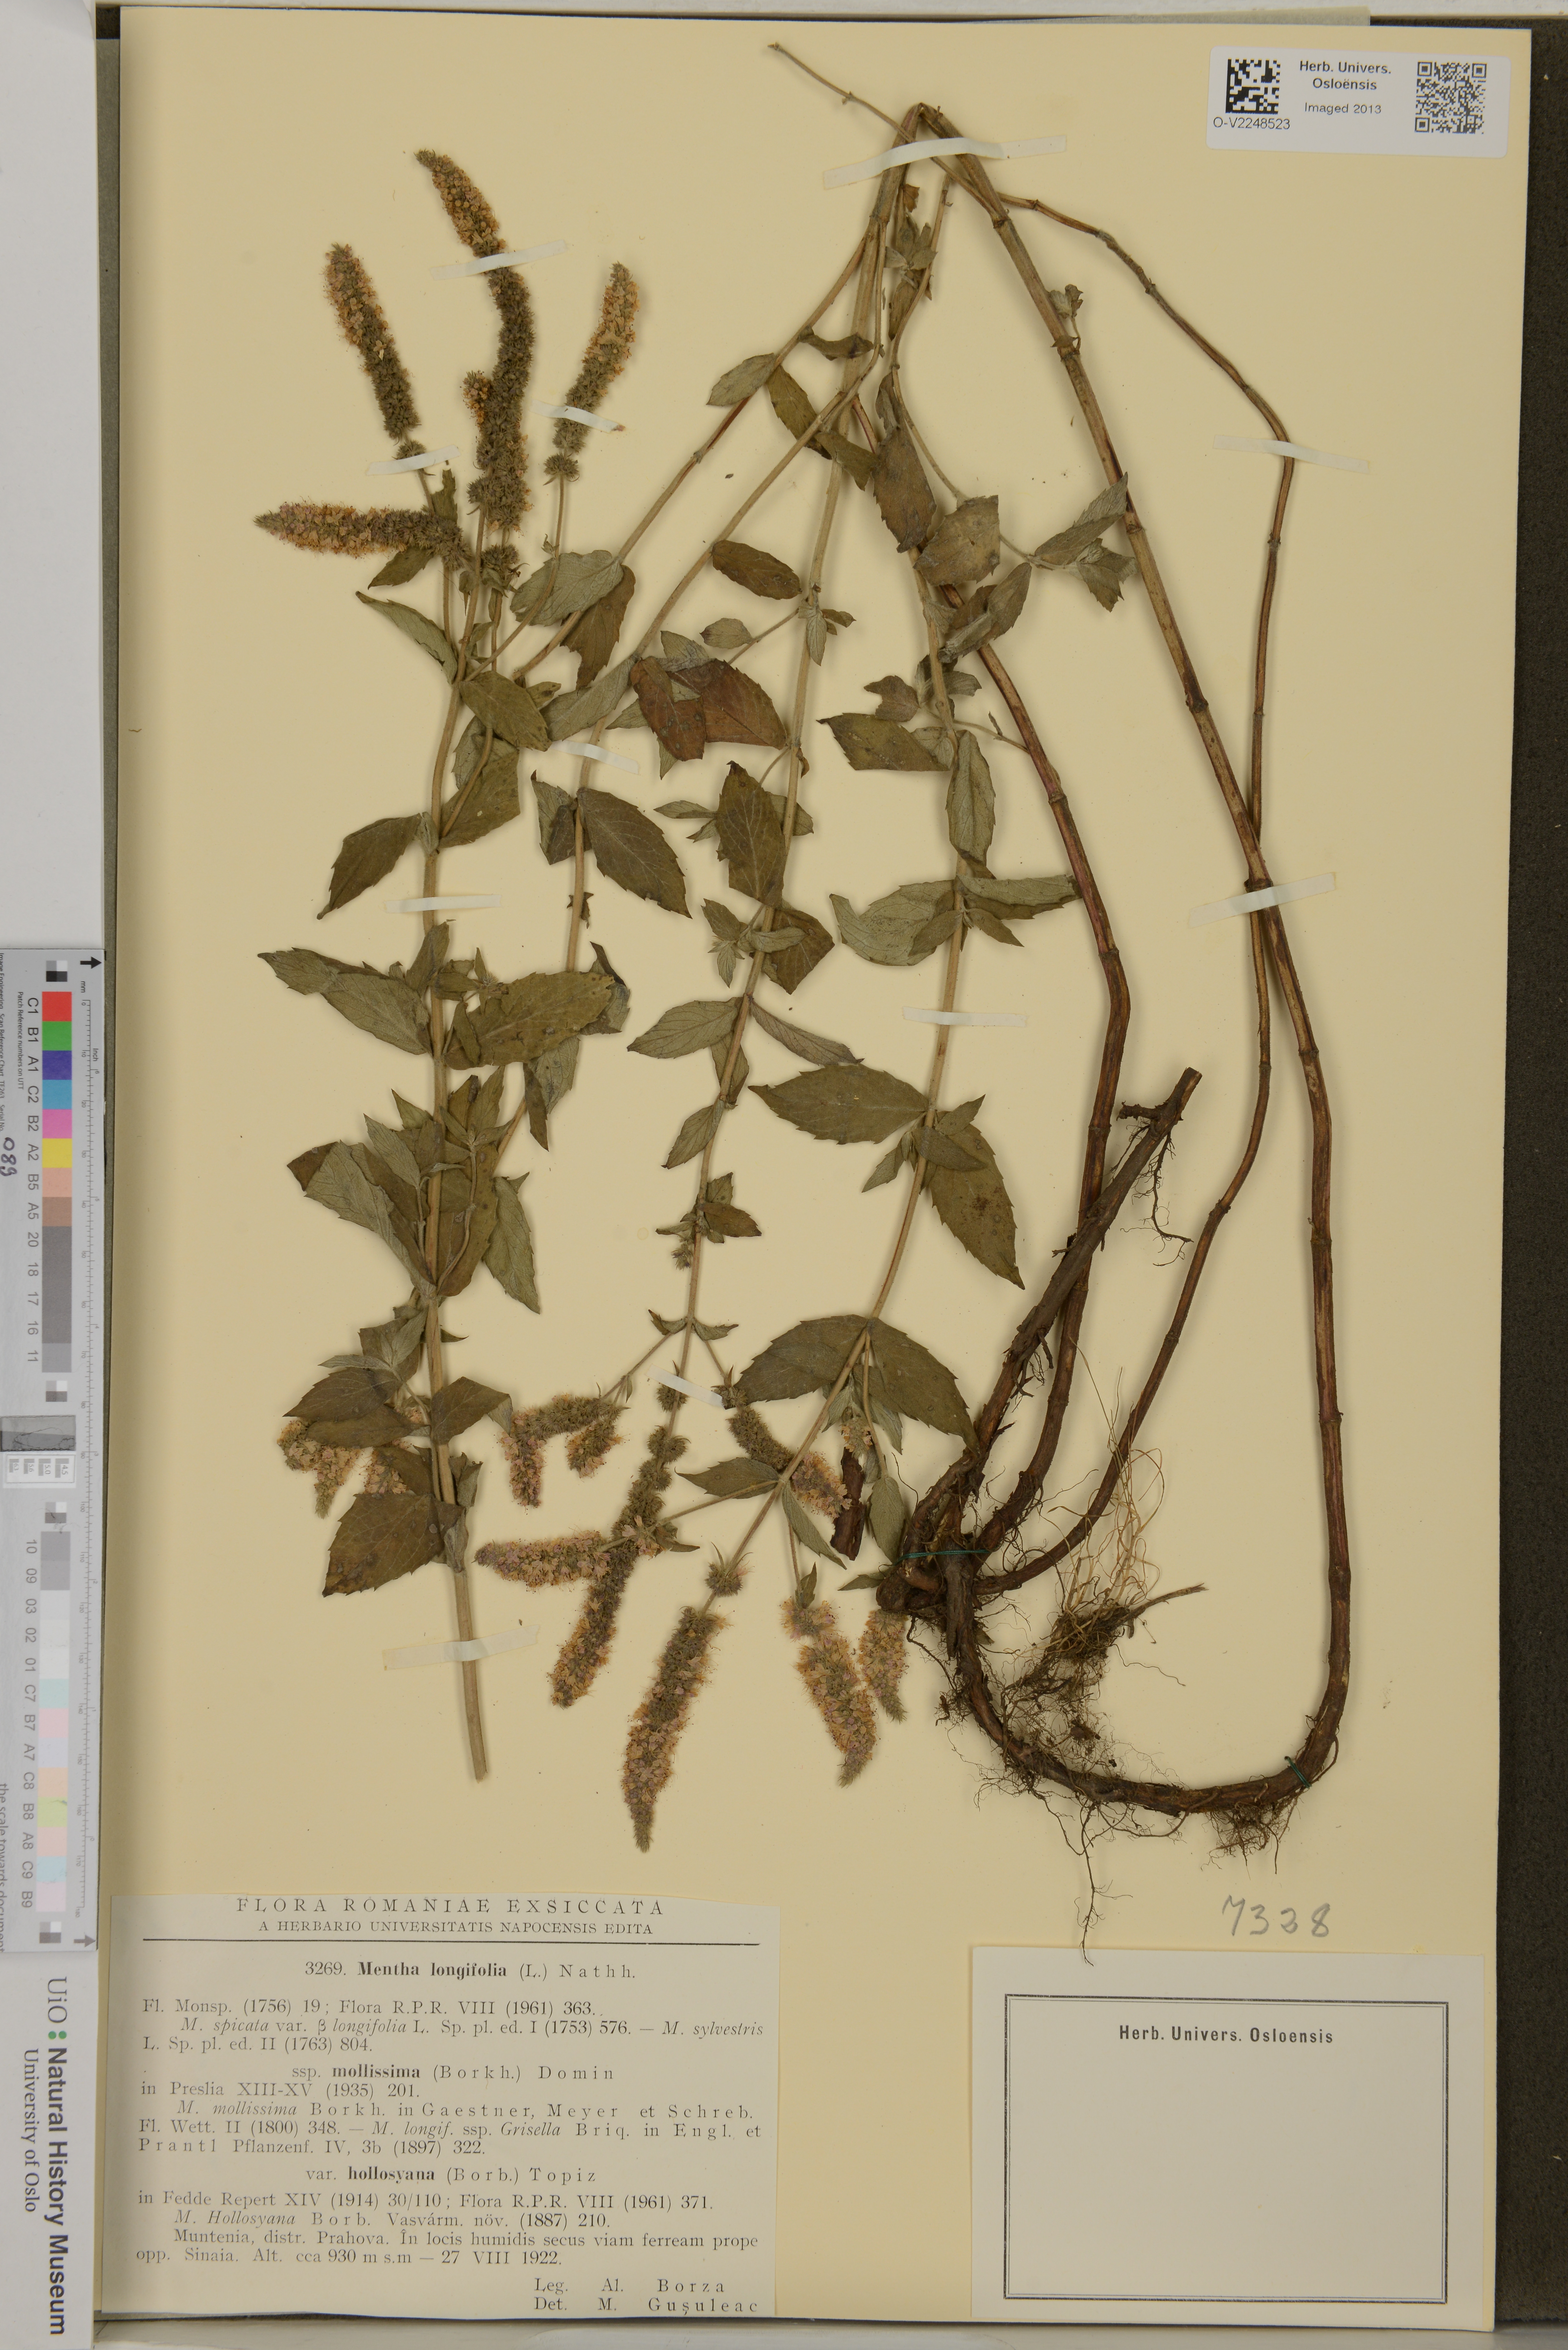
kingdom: Plantae
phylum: Tracheophyta
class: Magnoliopsida
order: Lamiales
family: Lamiaceae
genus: Mentha
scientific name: Mentha longifolia
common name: Horse mint
